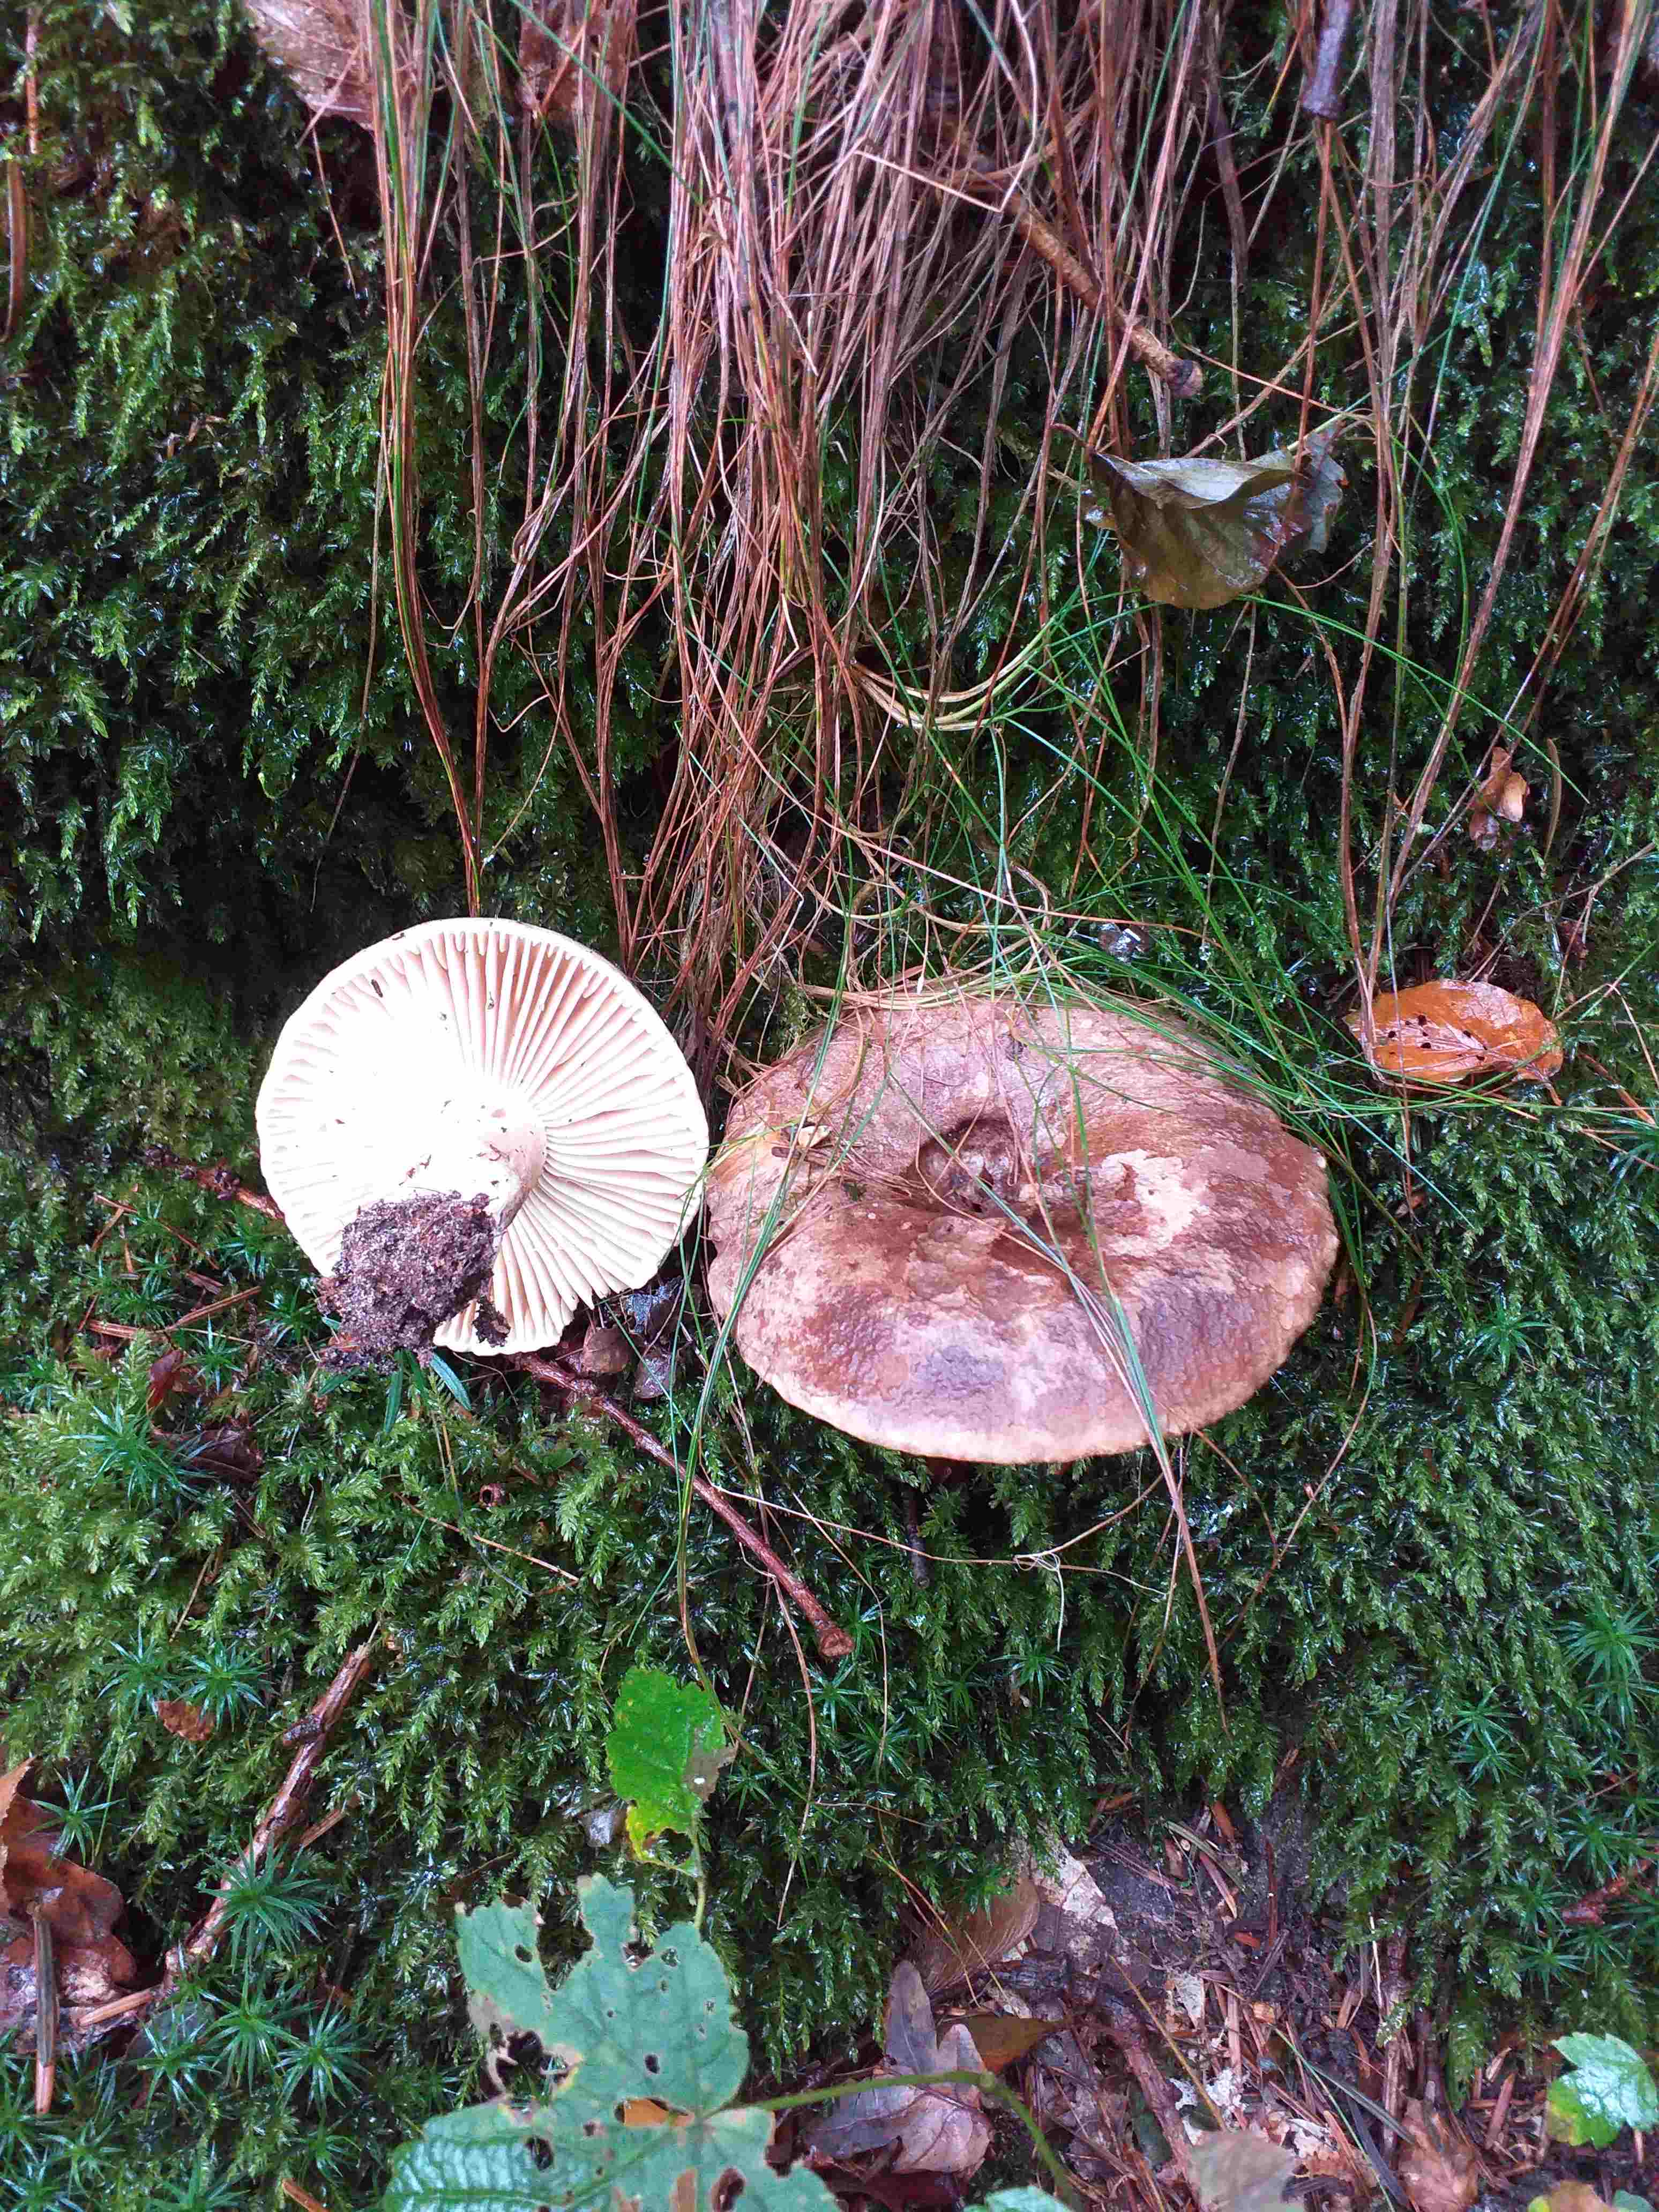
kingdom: Fungi
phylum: Basidiomycota
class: Agaricomycetes
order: Russulales
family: Russulaceae
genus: Russula
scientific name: Russula adusta
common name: sværtende skørhat
